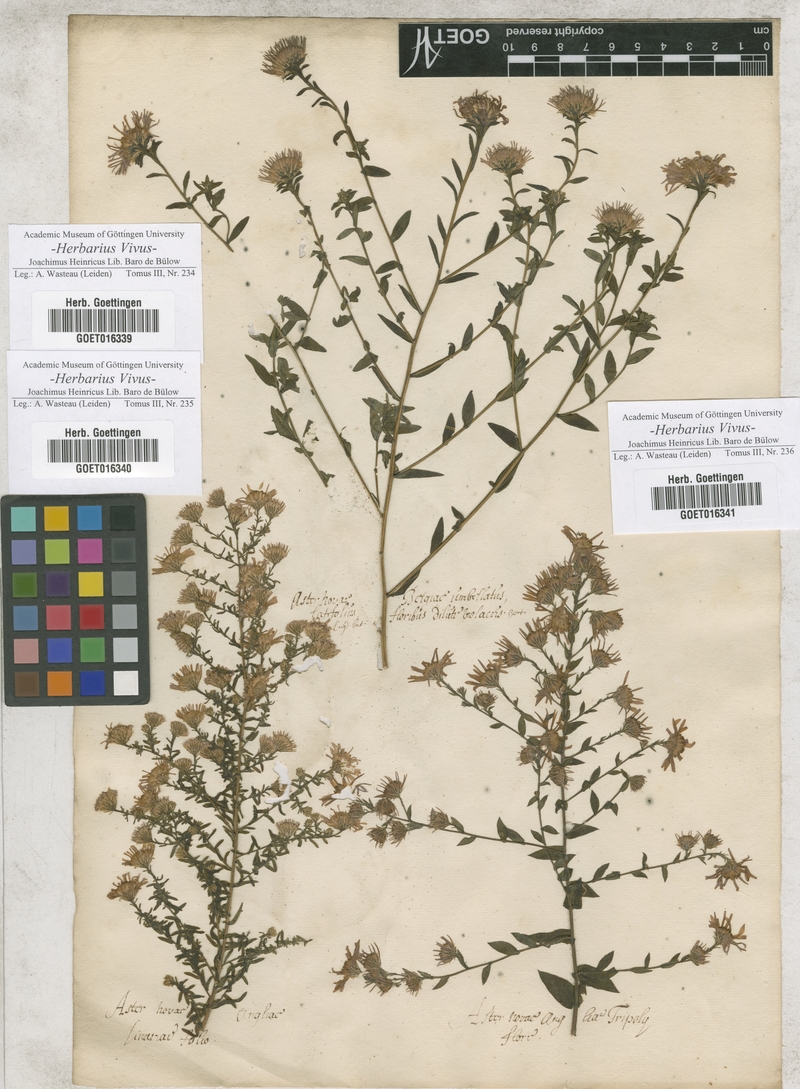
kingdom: Plantae
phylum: Tracheophyta
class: Magnoliopsida
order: Asterales
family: Asteraceae
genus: Symphyotrichum
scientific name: Symphyotrichum novi-belgii
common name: Michaelmas daisy
